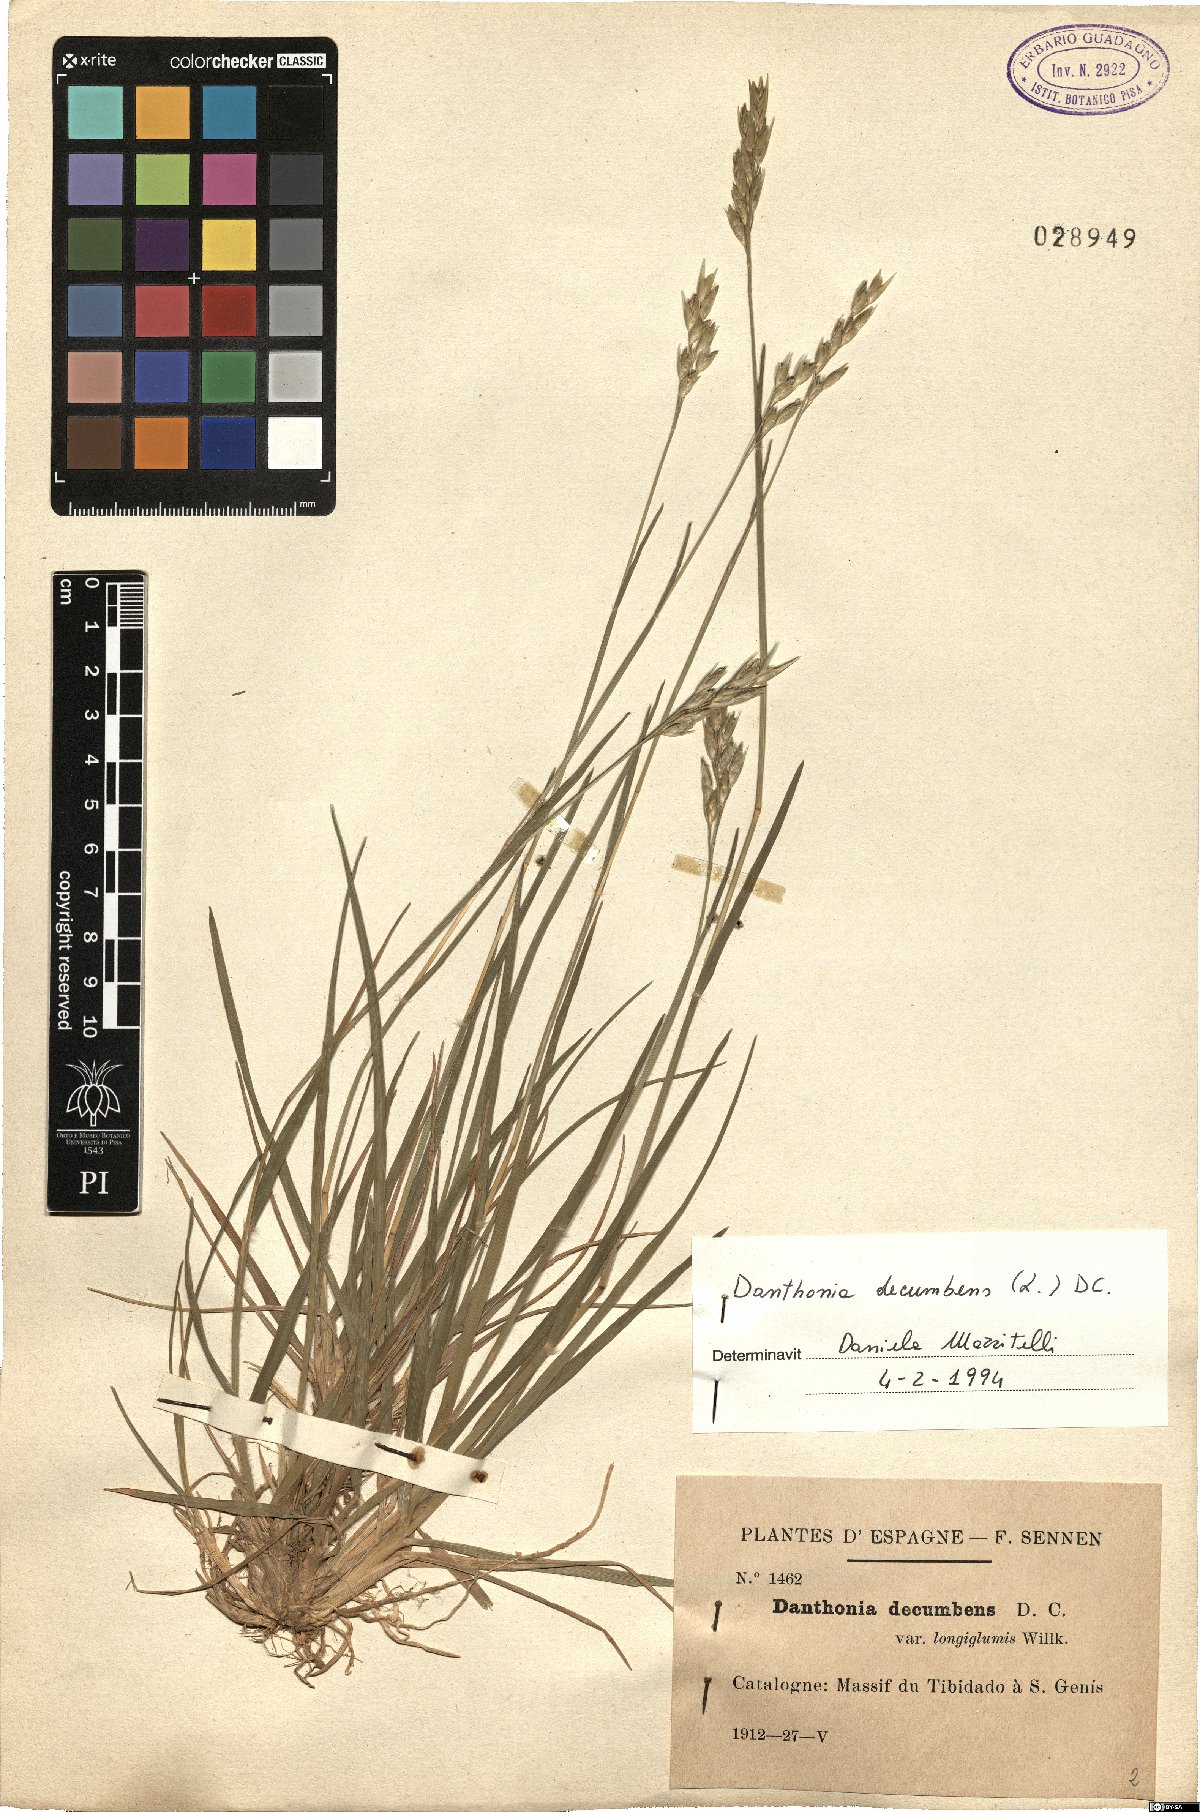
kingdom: Plantae
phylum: Tracheophyta
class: Liliopsida
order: Poales
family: Poaceae
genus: Danthonia
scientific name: Danthonia decumbens
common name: Common heathgrass
